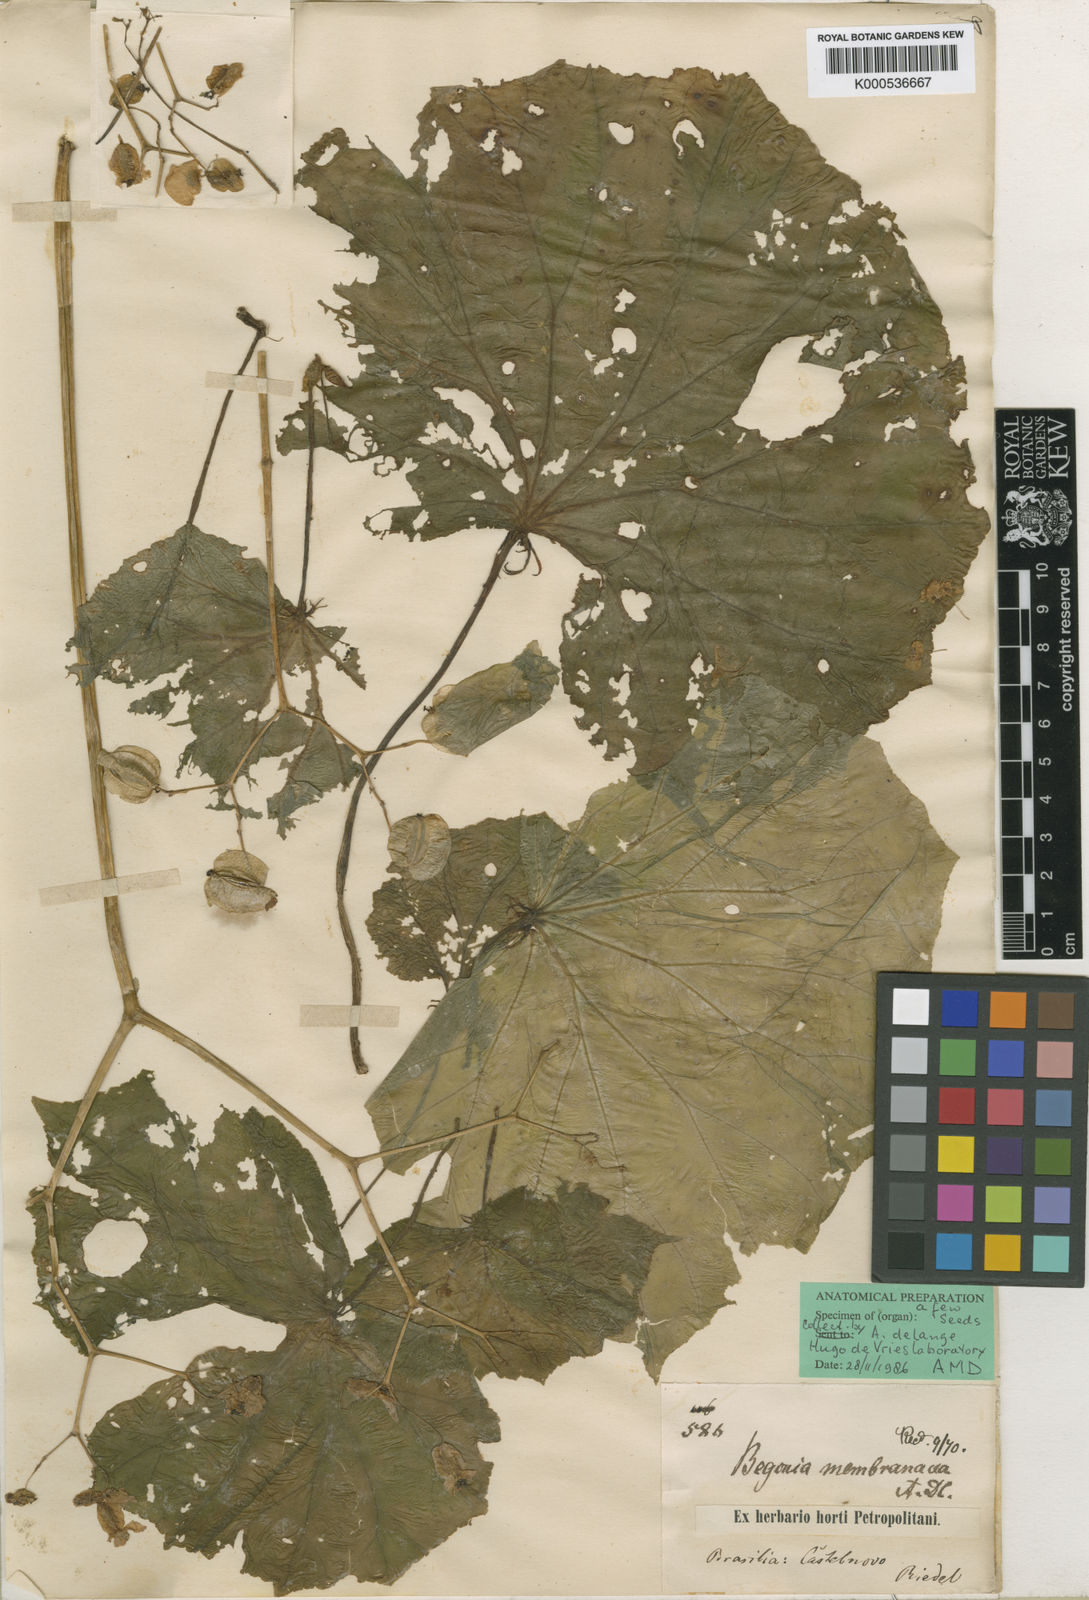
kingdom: Plantae
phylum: Tracheophyta
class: Magnoliopsida
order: Cucurbitales
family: Begoniaceae
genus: Begonia
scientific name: Begonia neglecta
